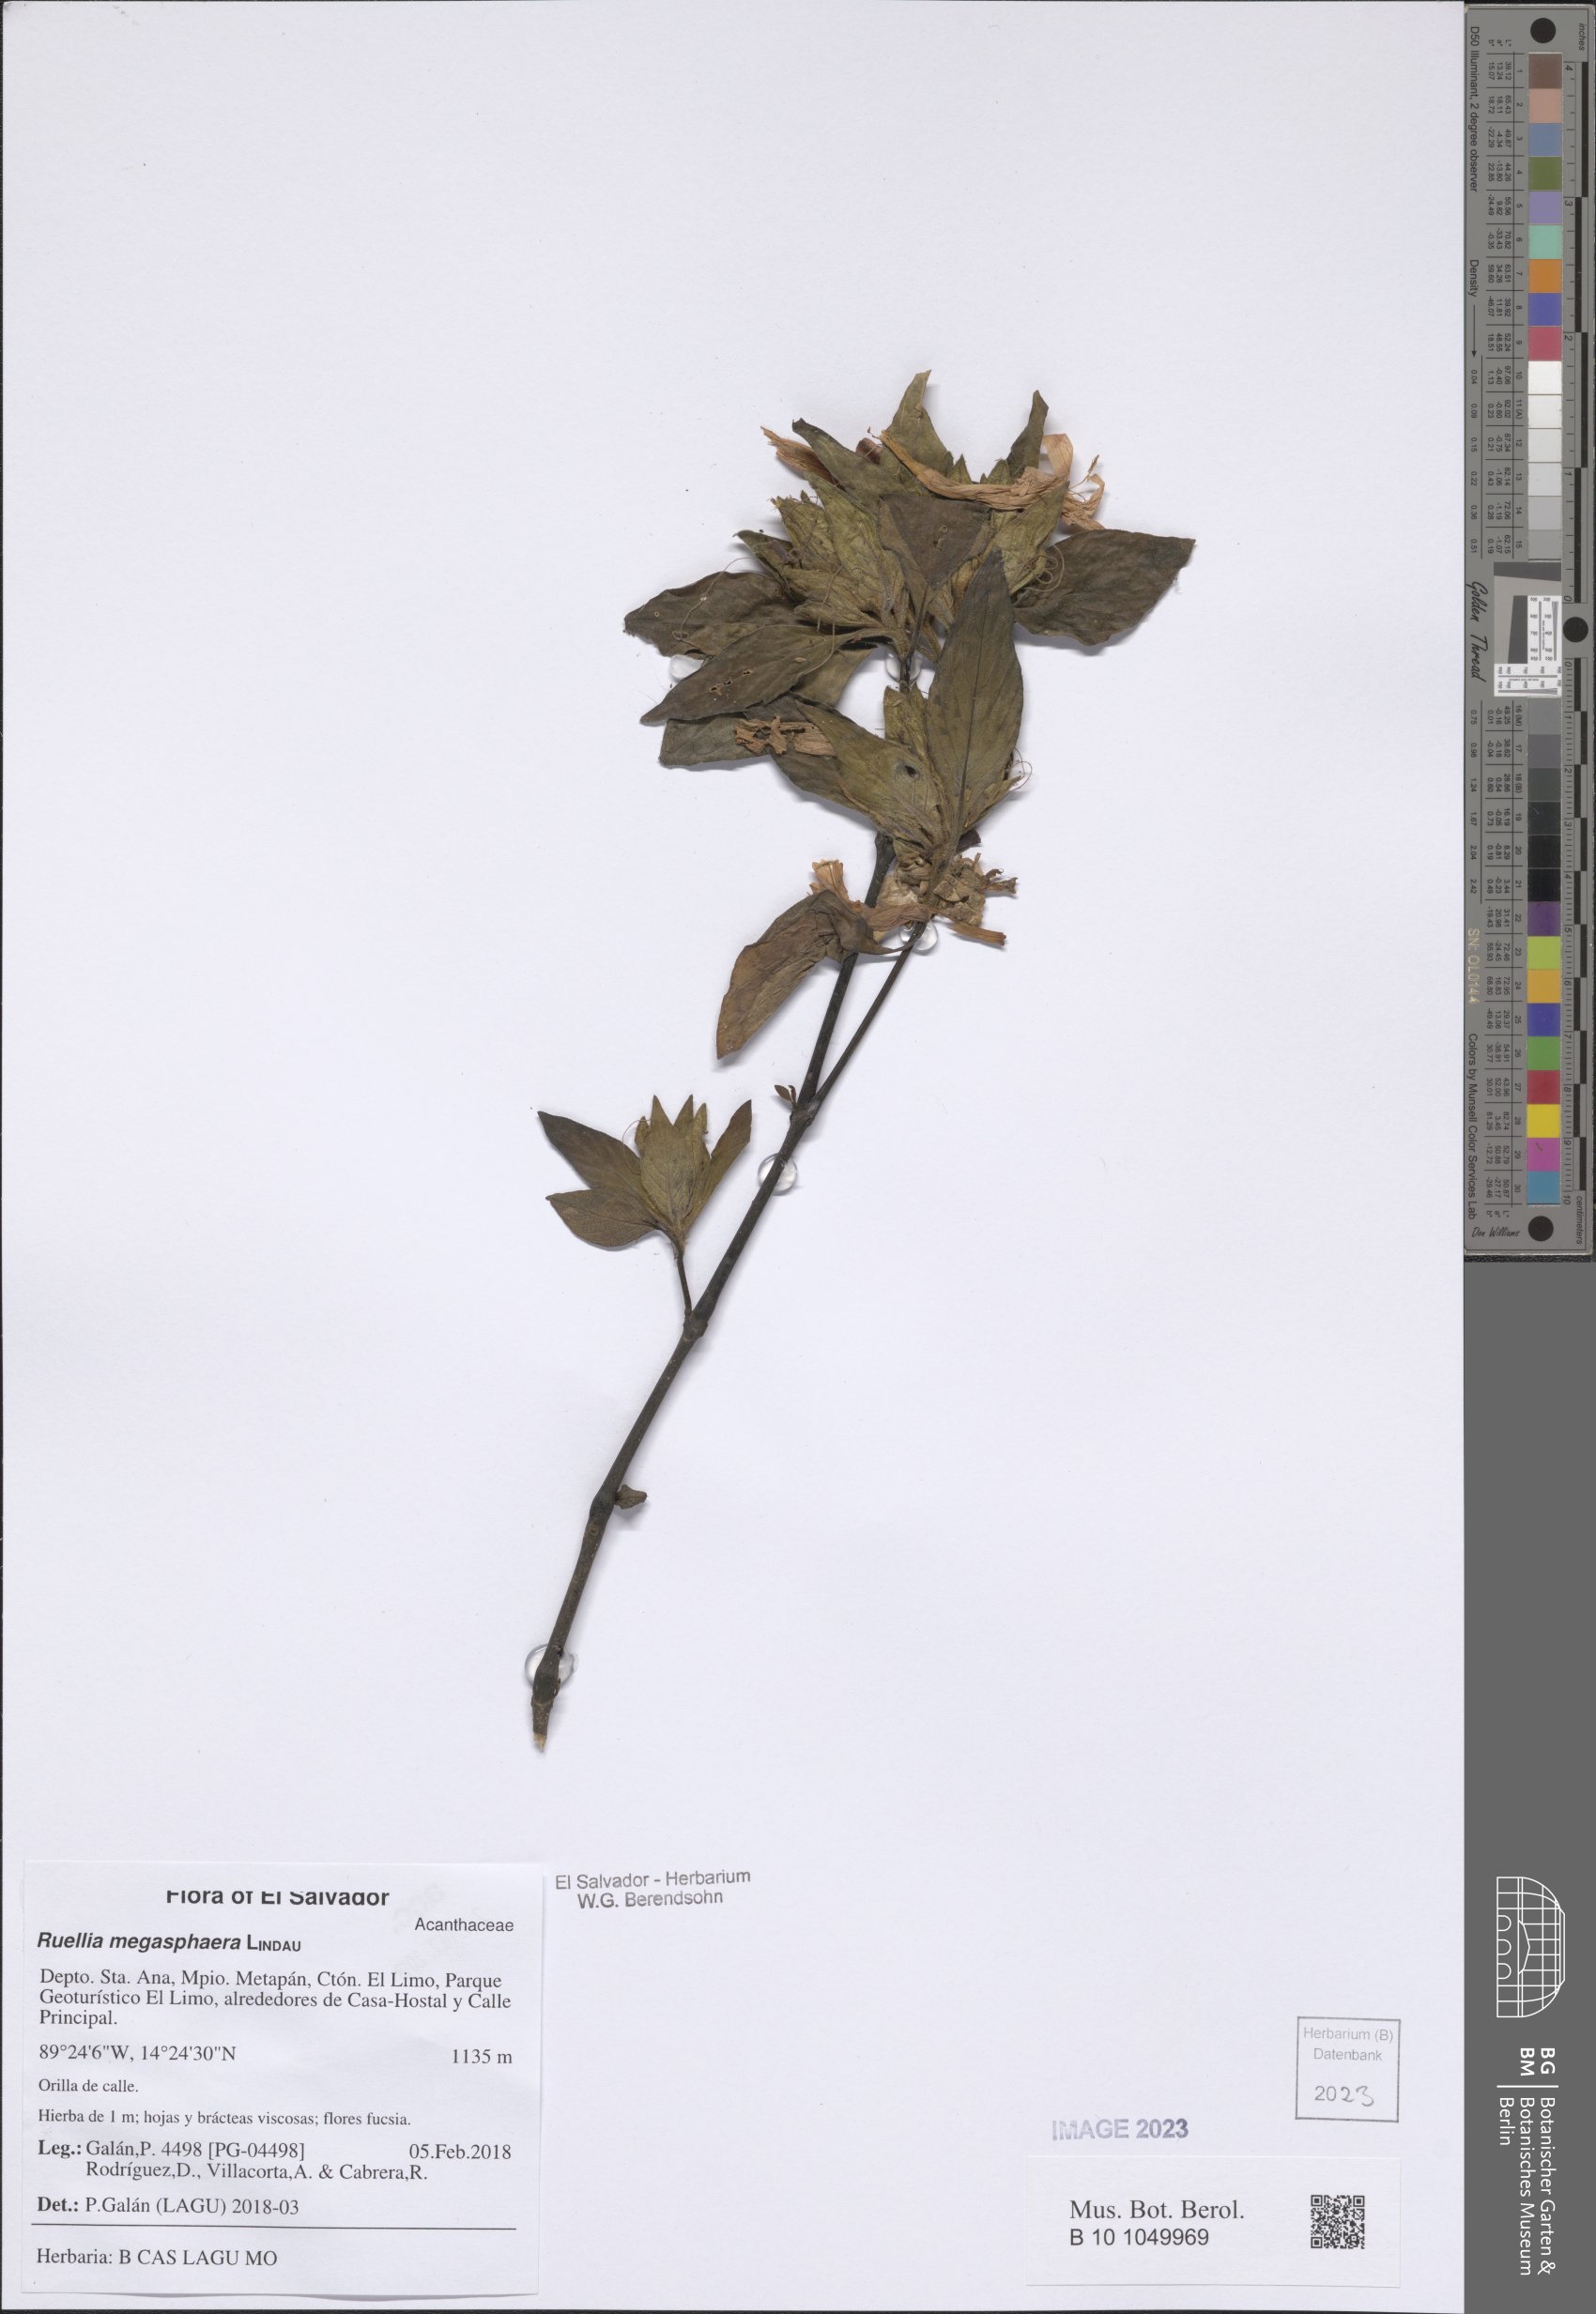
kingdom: Plantae
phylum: Tracheophyta
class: Magnoliopsida
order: Lamiales
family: Acanthaceae
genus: Ruellia
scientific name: Ruellia megasphaera
